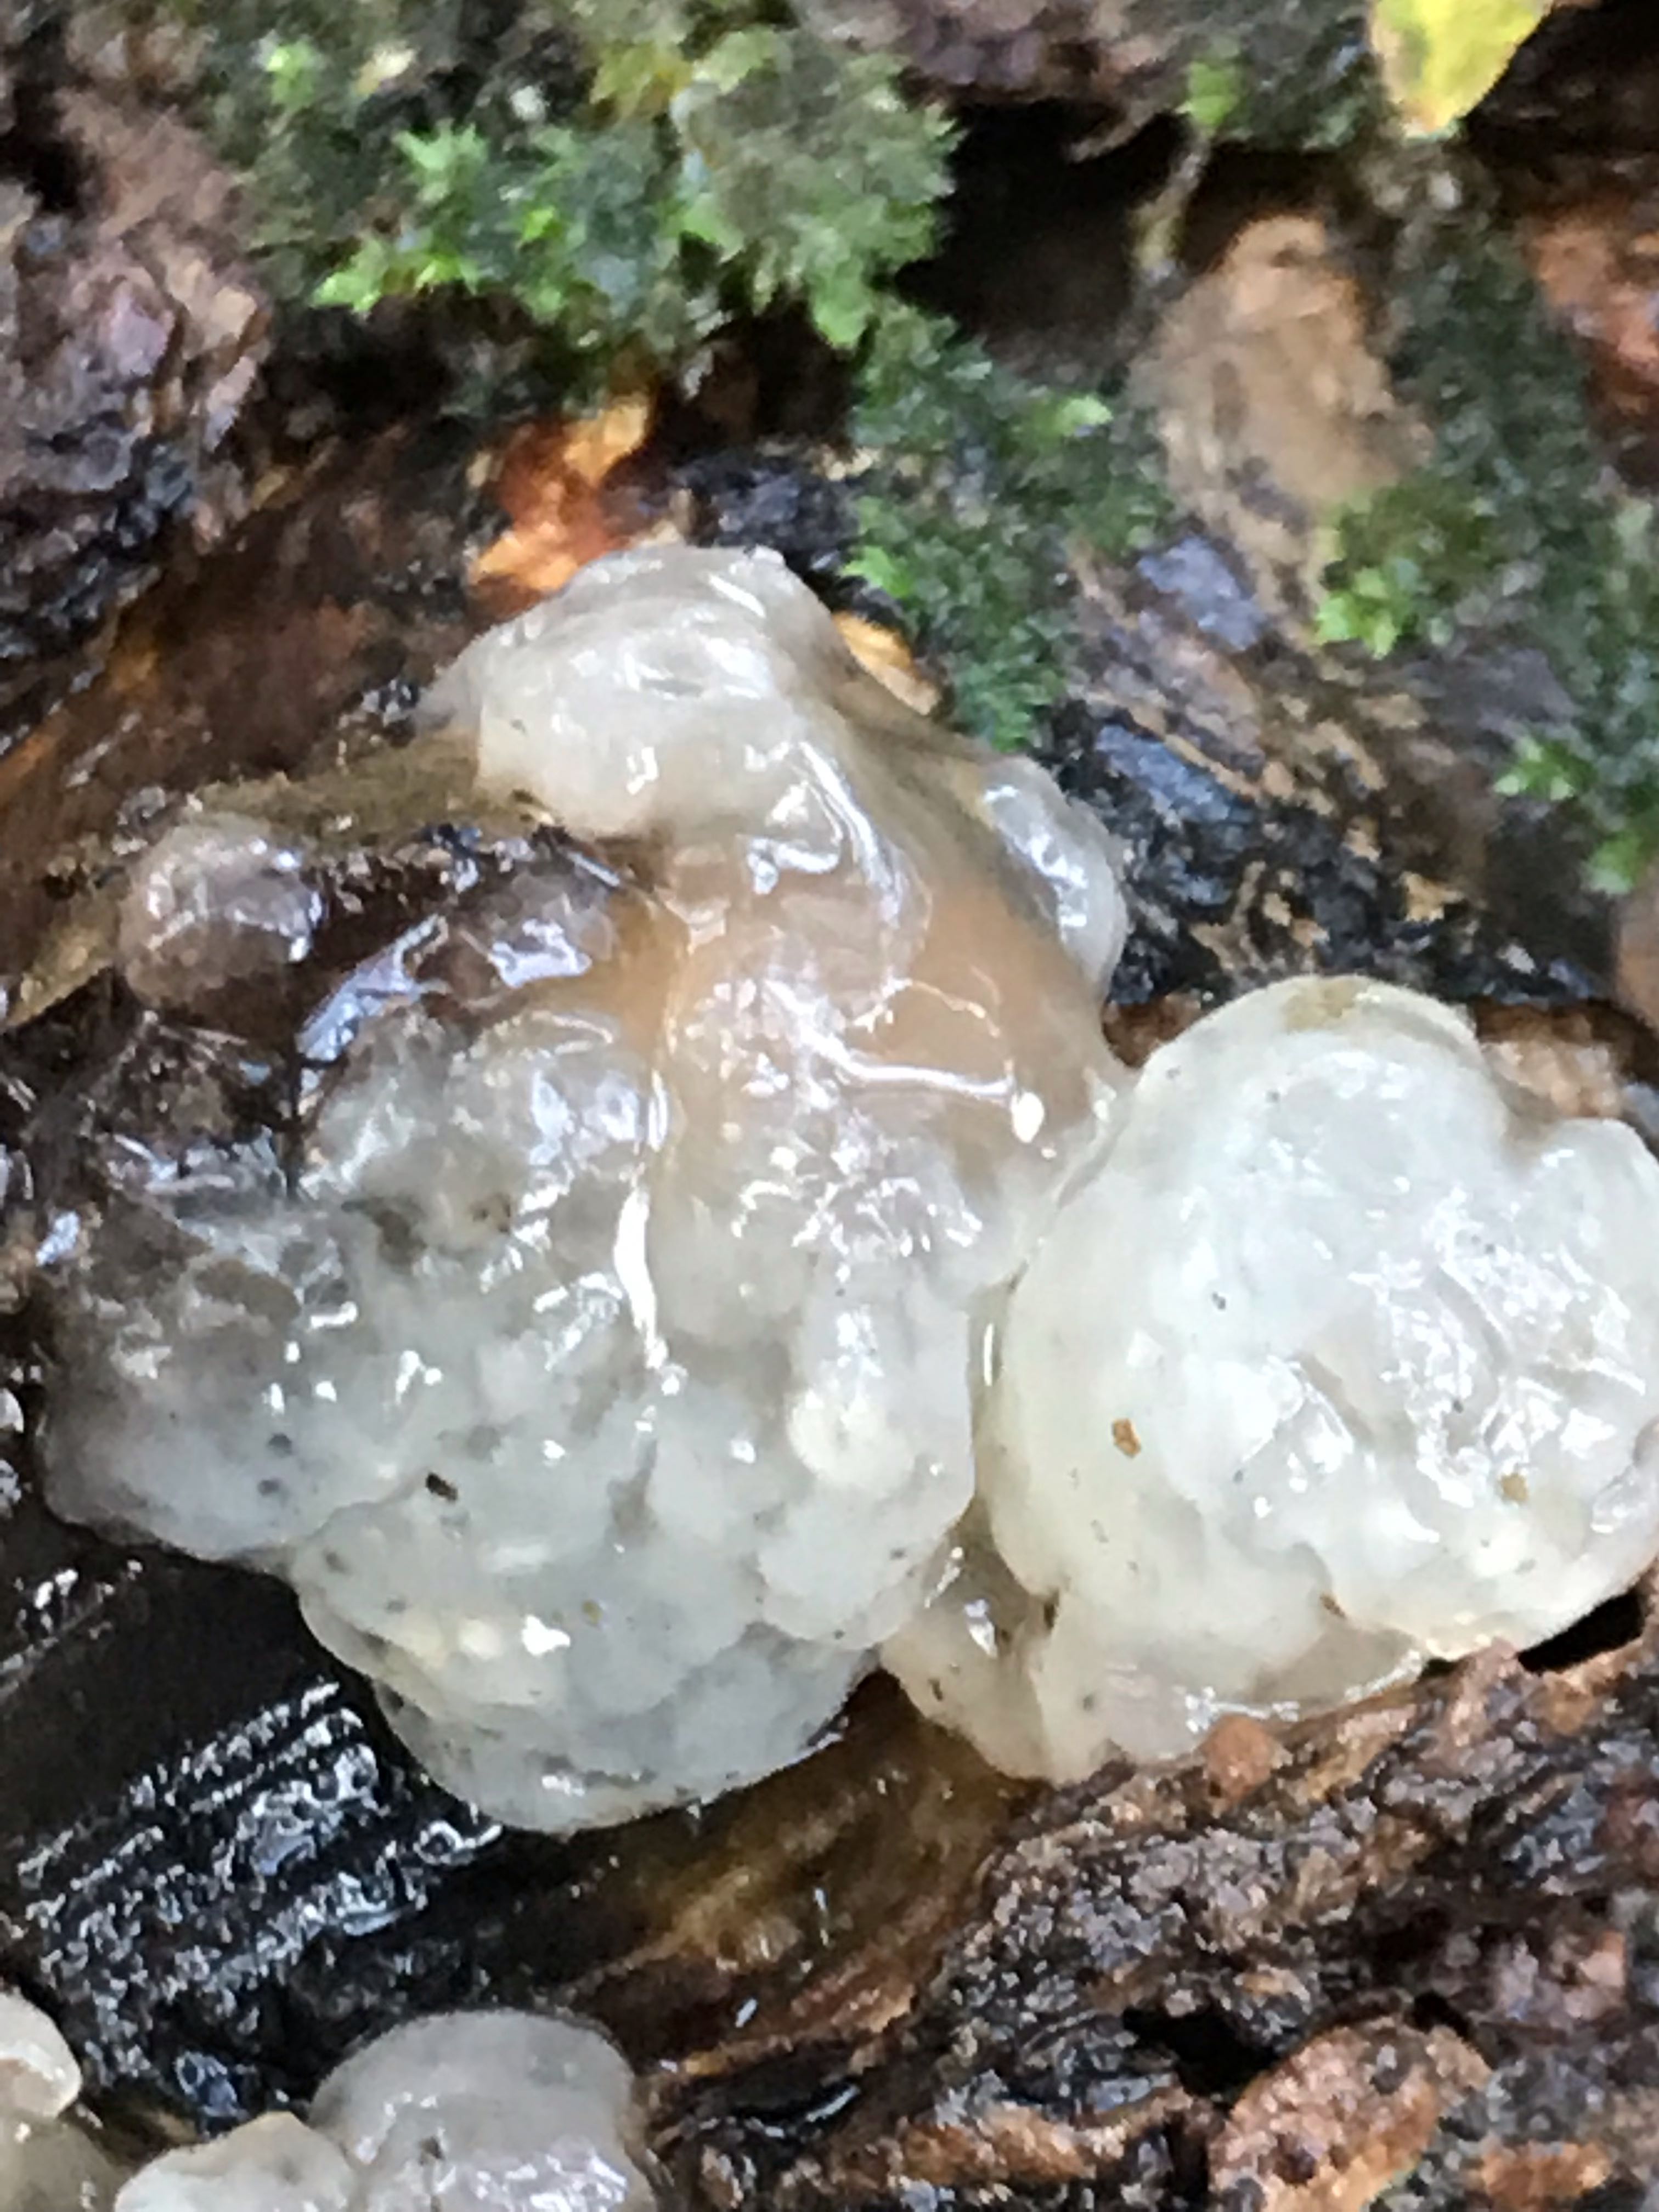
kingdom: Fungi
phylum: Basidiomycota
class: Agaricomycetes
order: Auriculariales
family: Hyaloriaceae
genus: Myxarium
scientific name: Myxarium nucleatum
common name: klar bævretop
